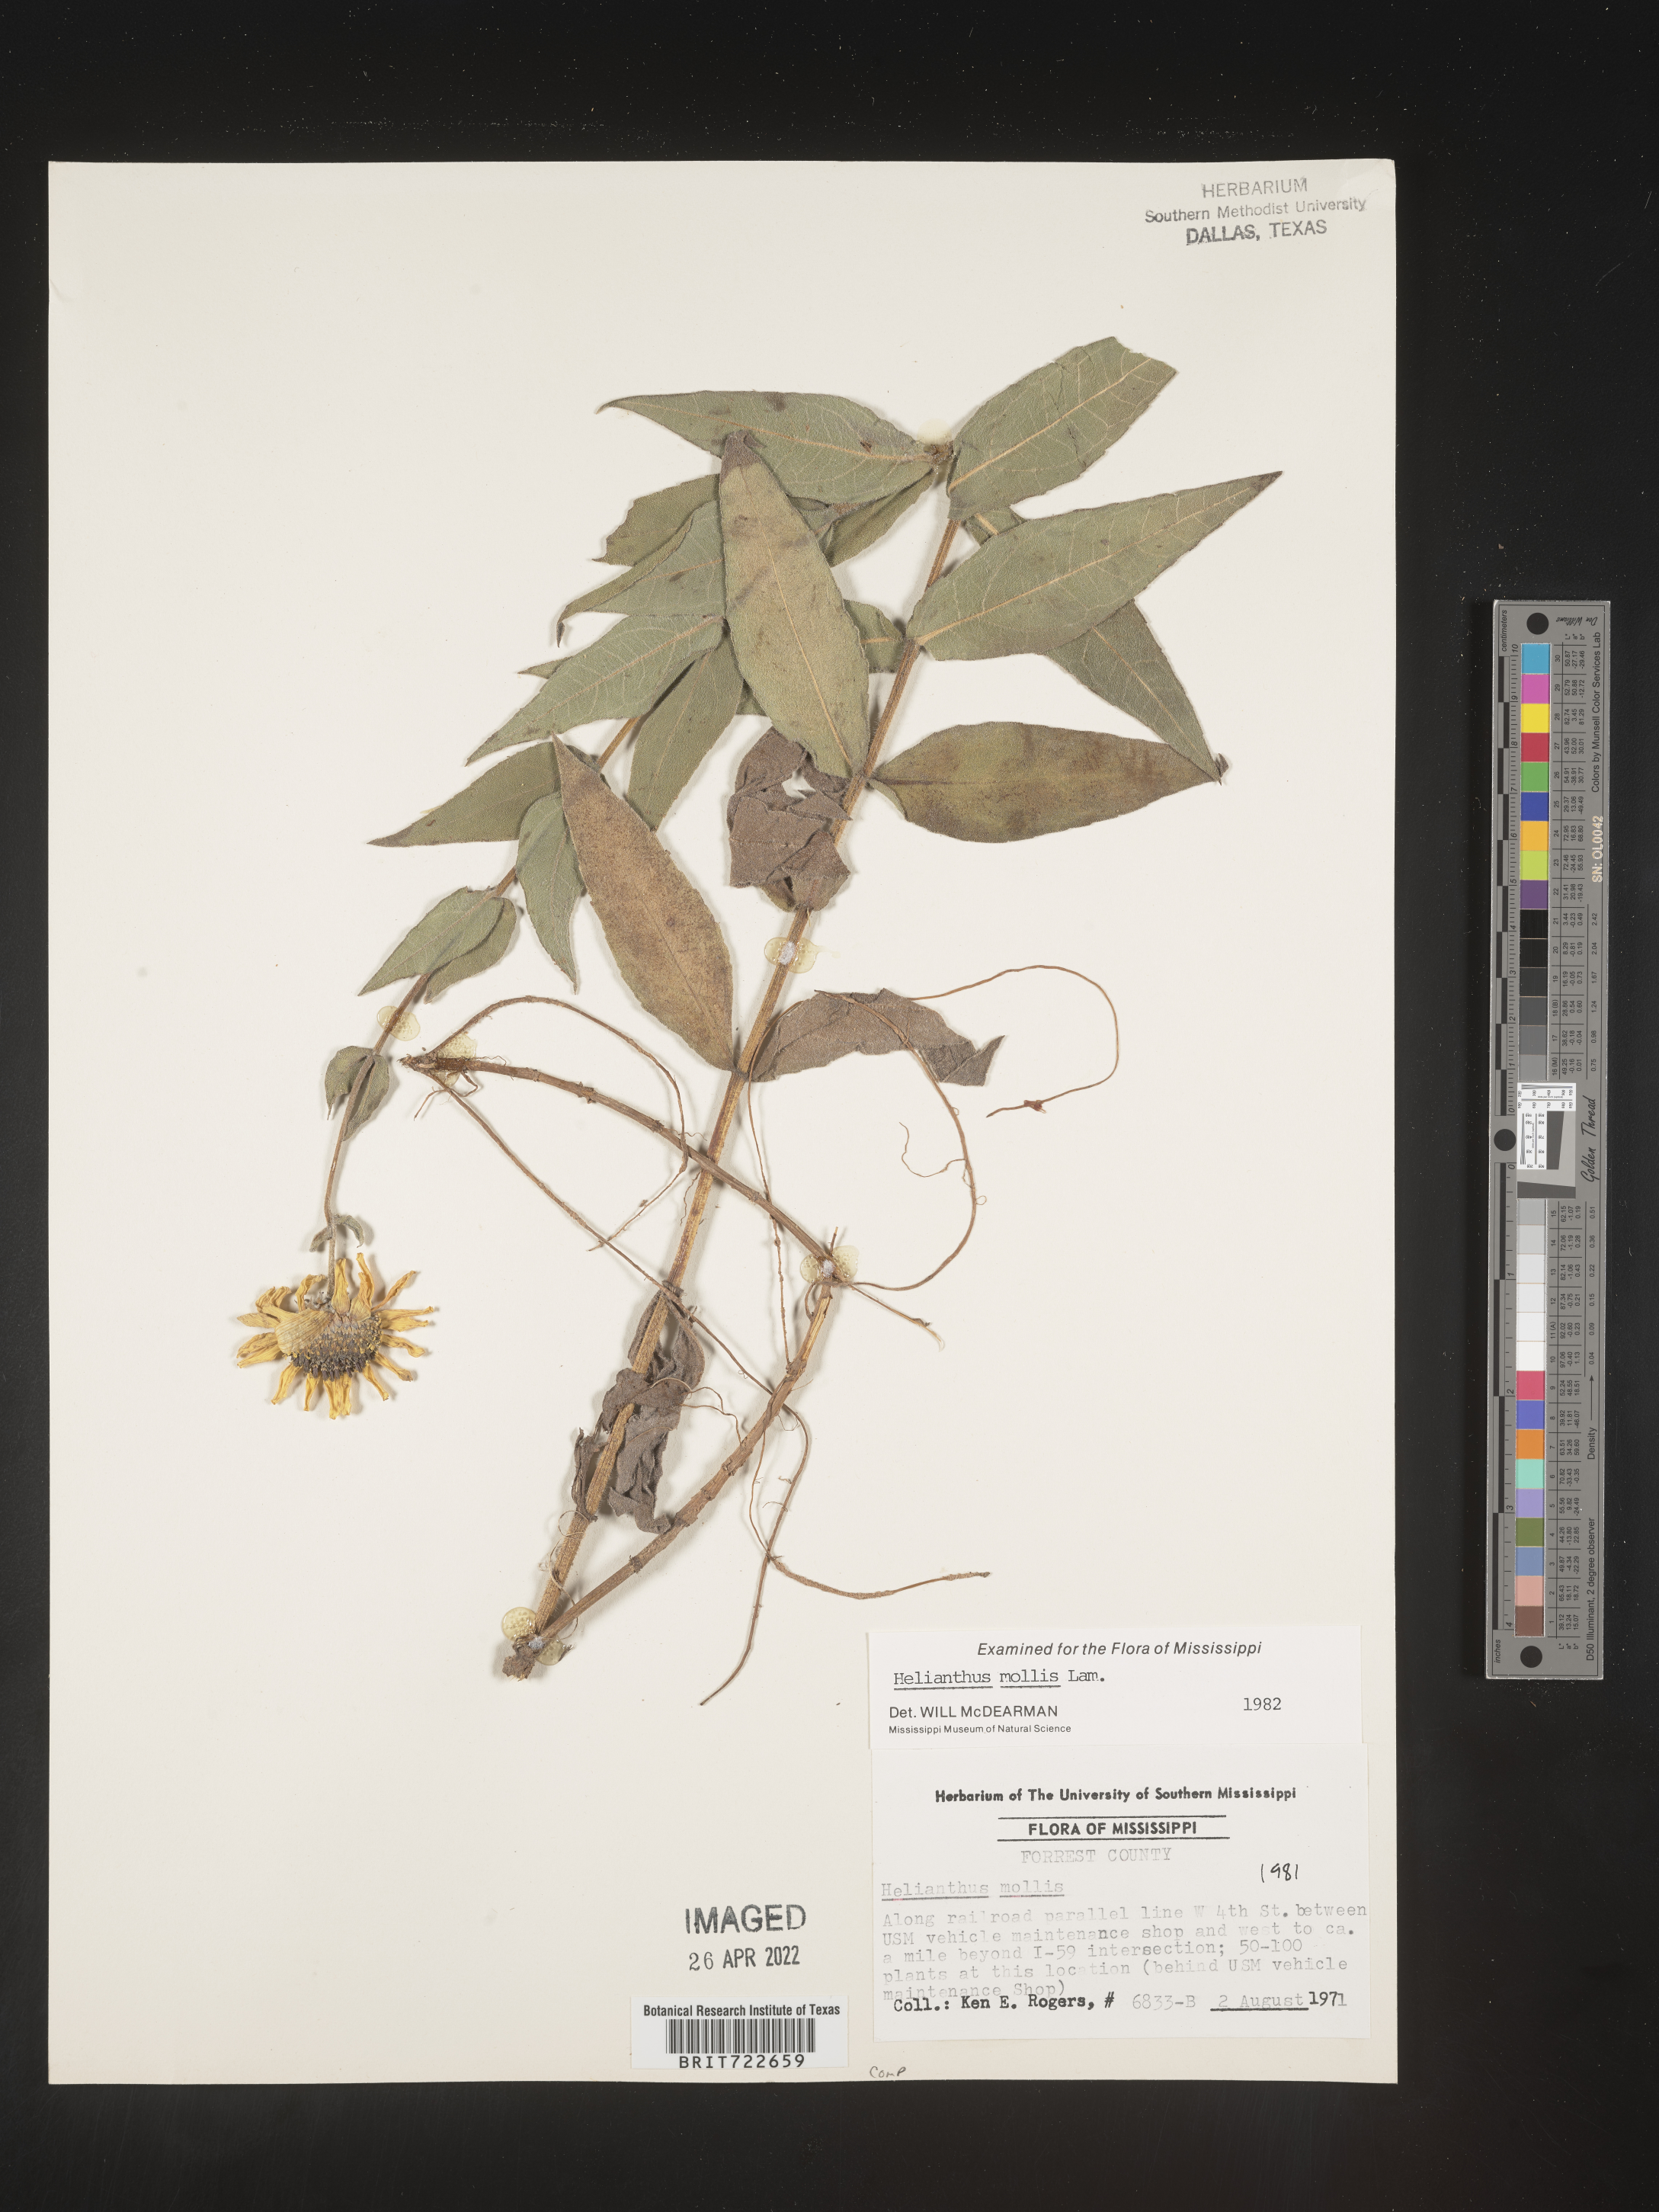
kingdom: Plantae
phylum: Tracheophyta
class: Magnoliopsida
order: Asterales
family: Asteraceae
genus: Helianthus
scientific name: Helianthus mollis
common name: Ashy sunflower
